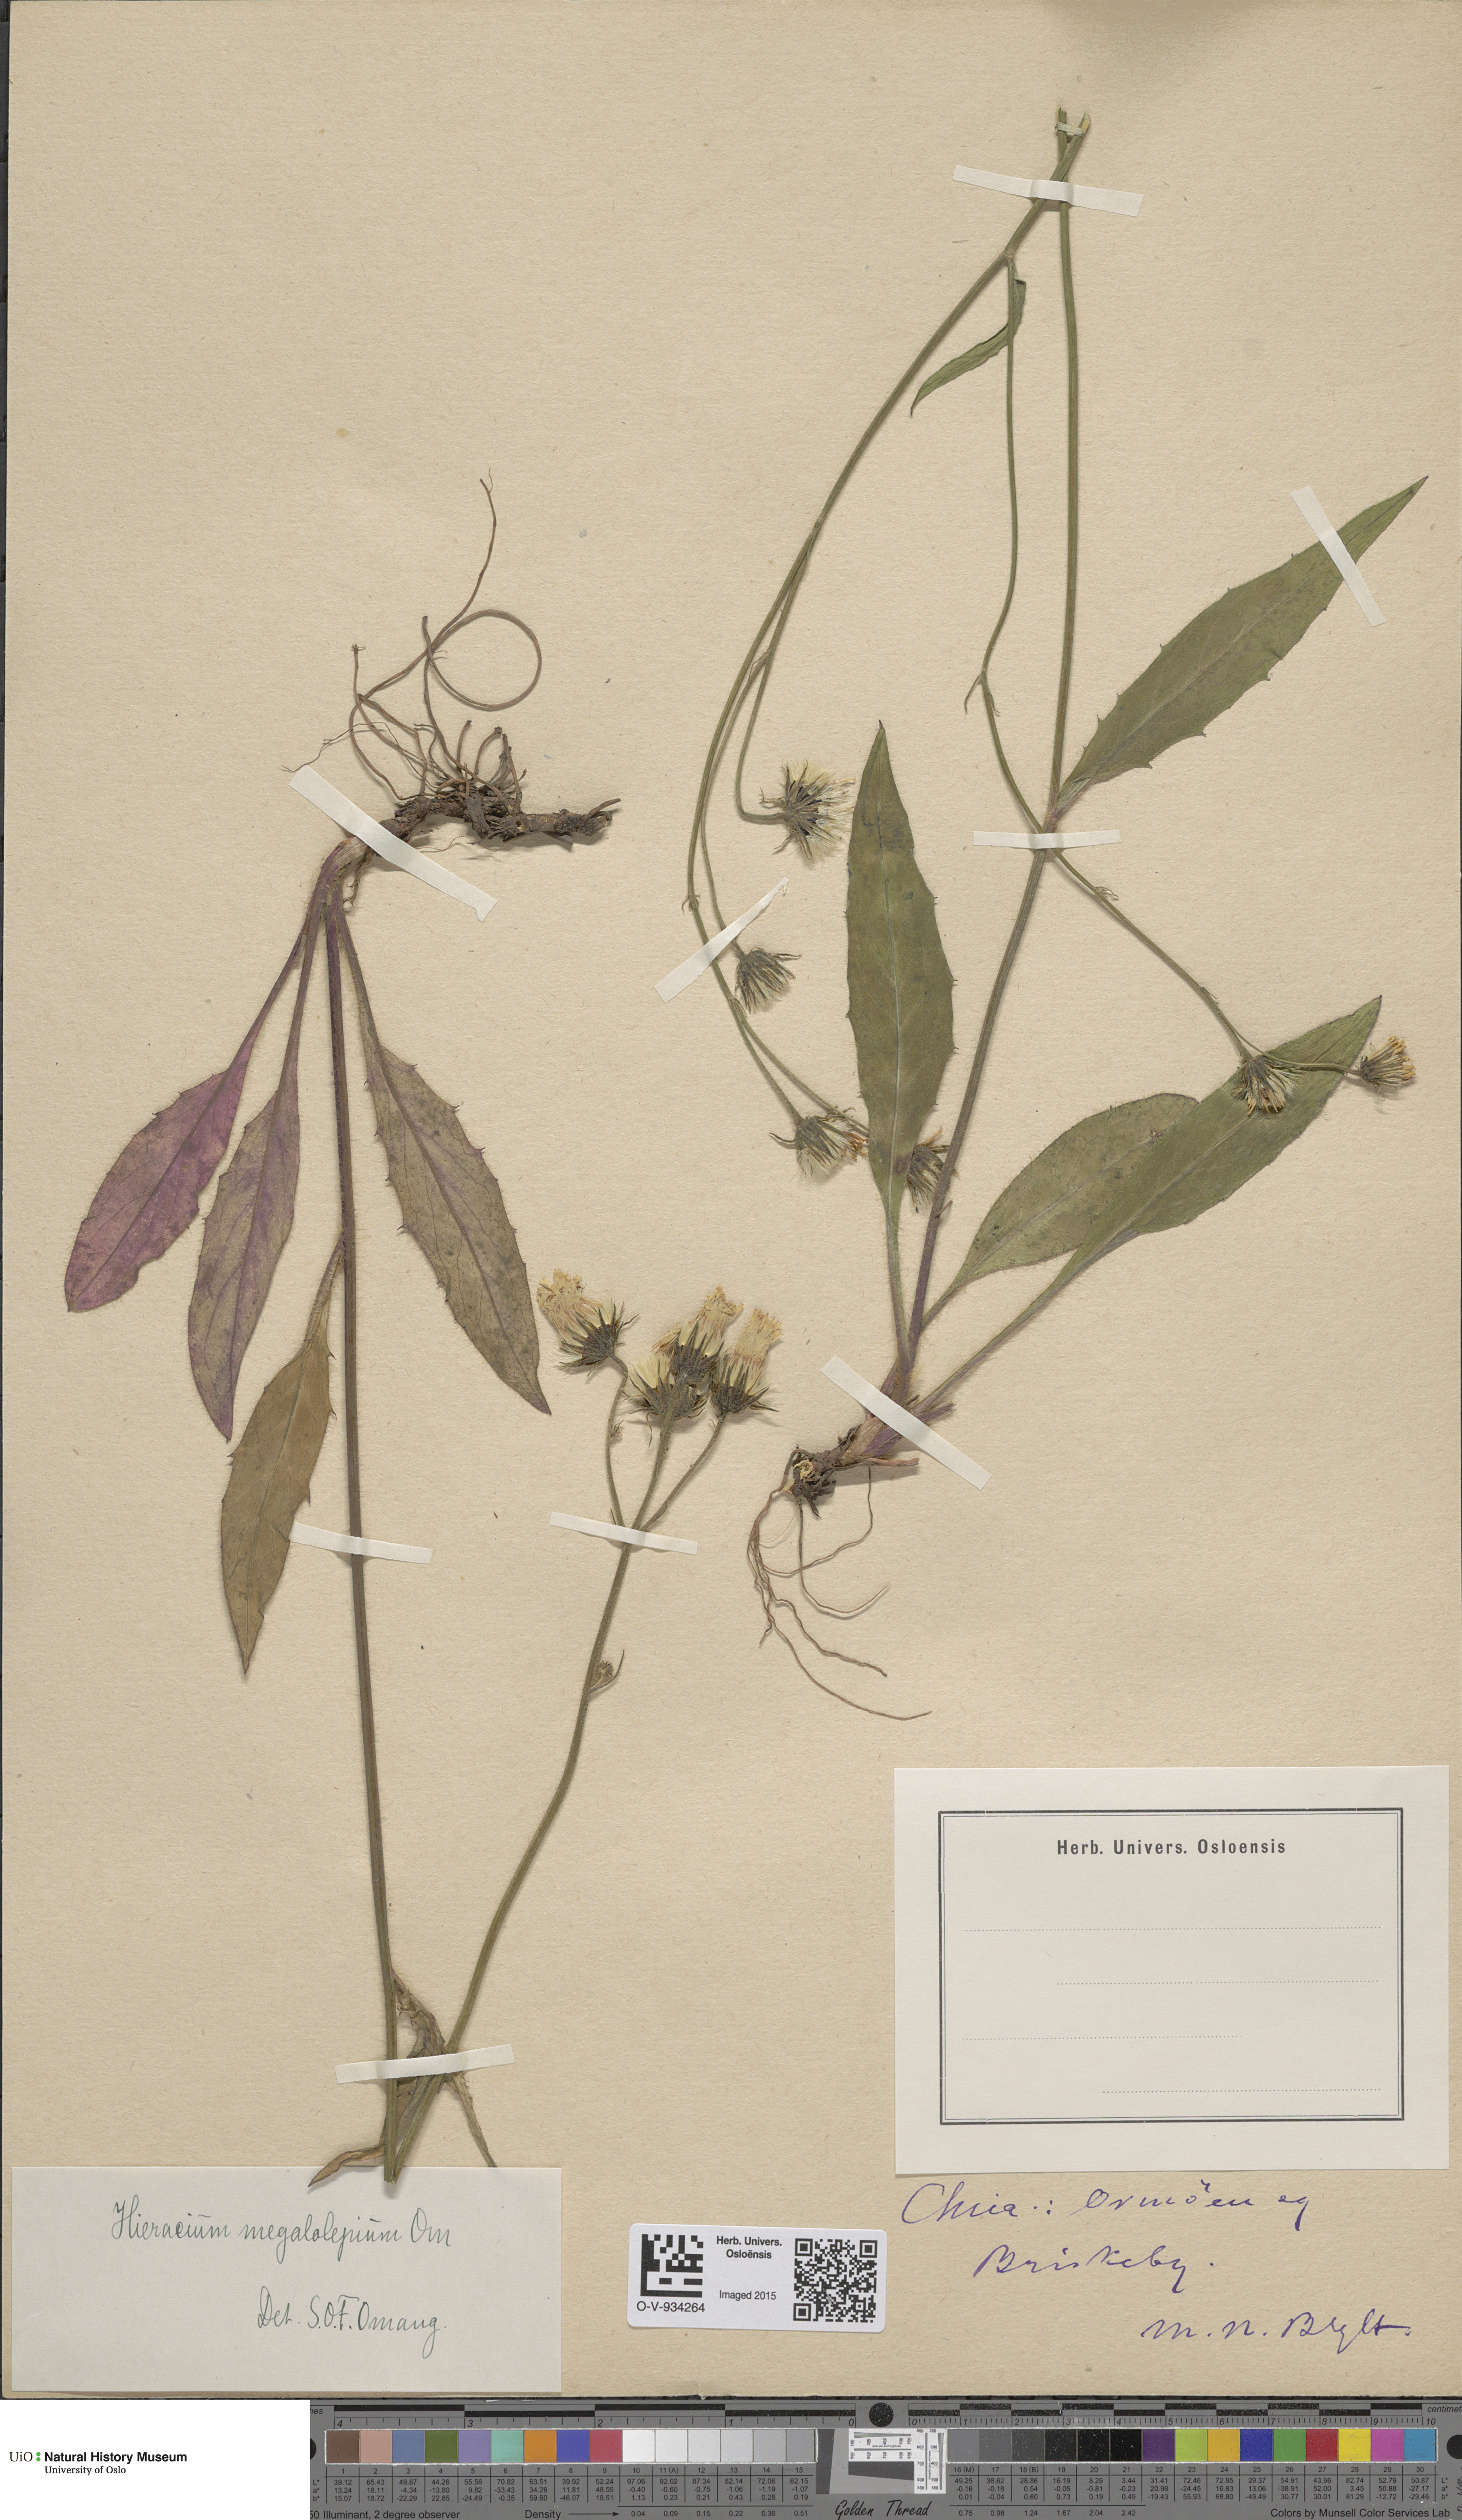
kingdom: Plantae
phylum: Tracheophyta
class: Magnoliopsida
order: Asterales
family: Asteraceae
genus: Hieracium
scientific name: Hieracium saxifragum
